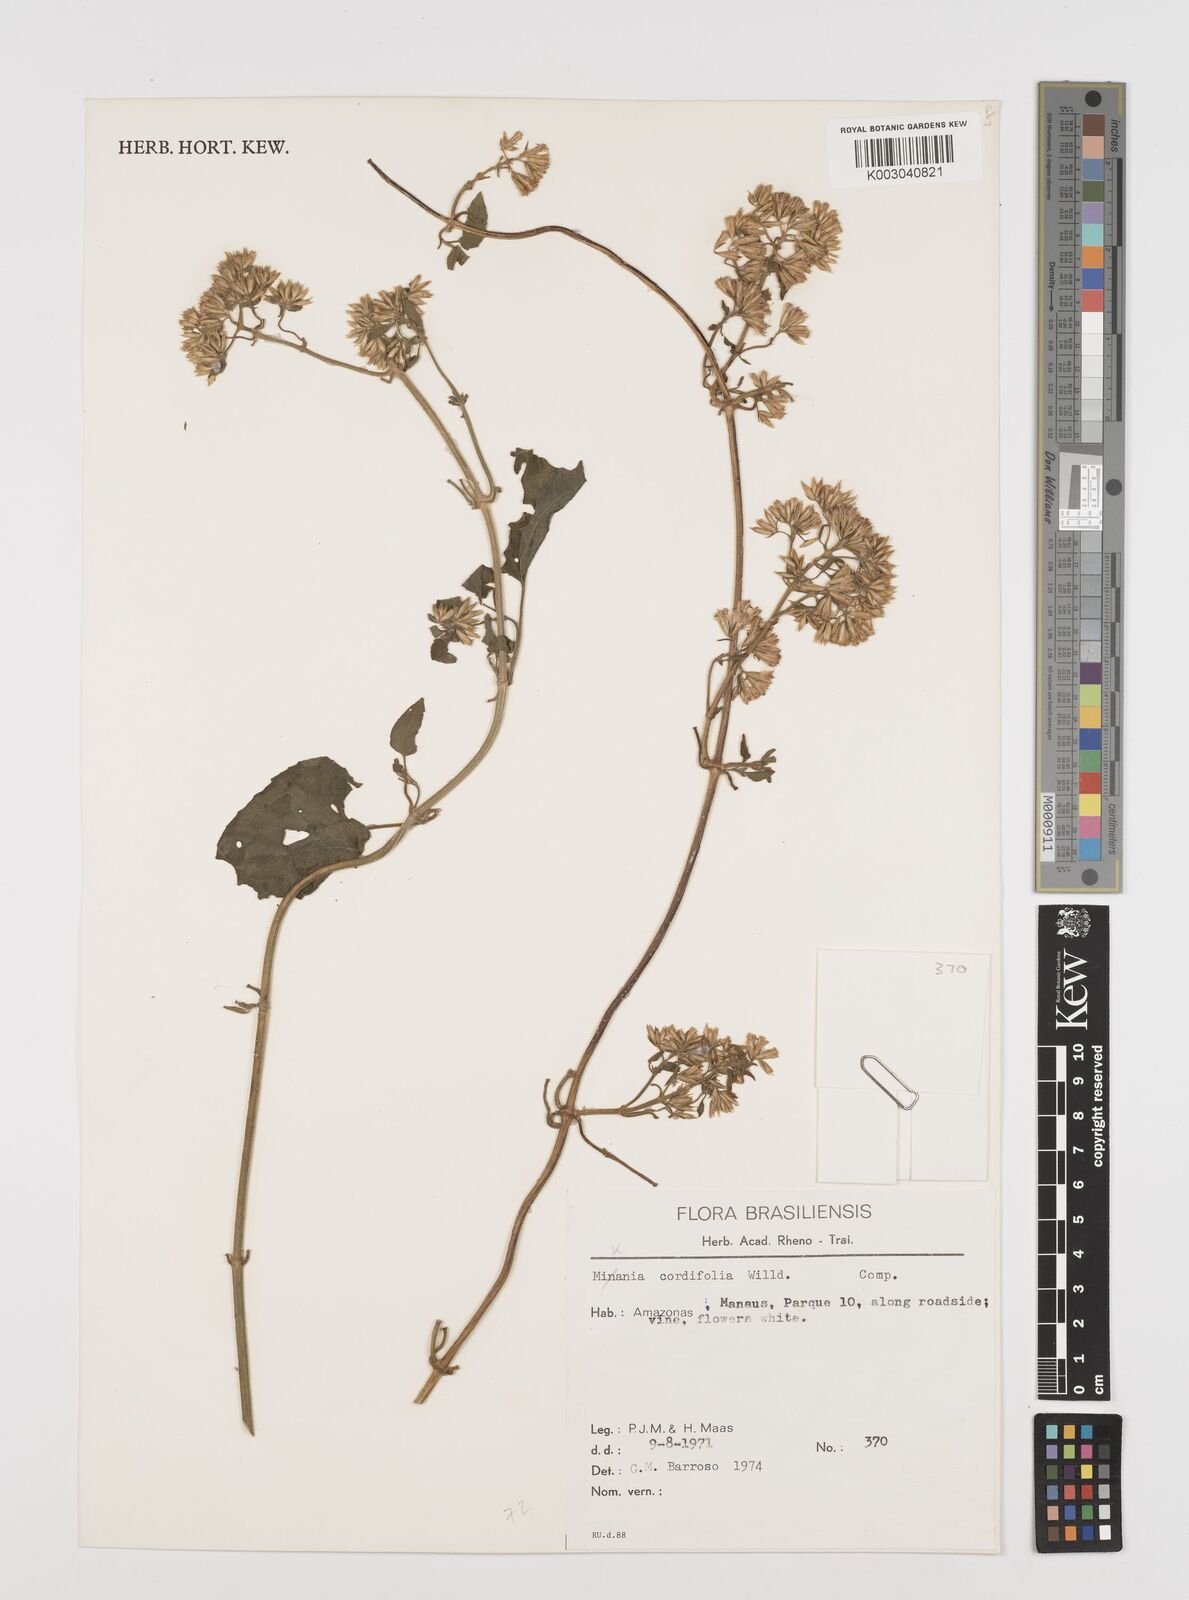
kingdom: Plantae
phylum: Tracheophyta
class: Magnoliopsida
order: Asterales
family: Asteraceae
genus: Mikania
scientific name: Mikania cordifolia
